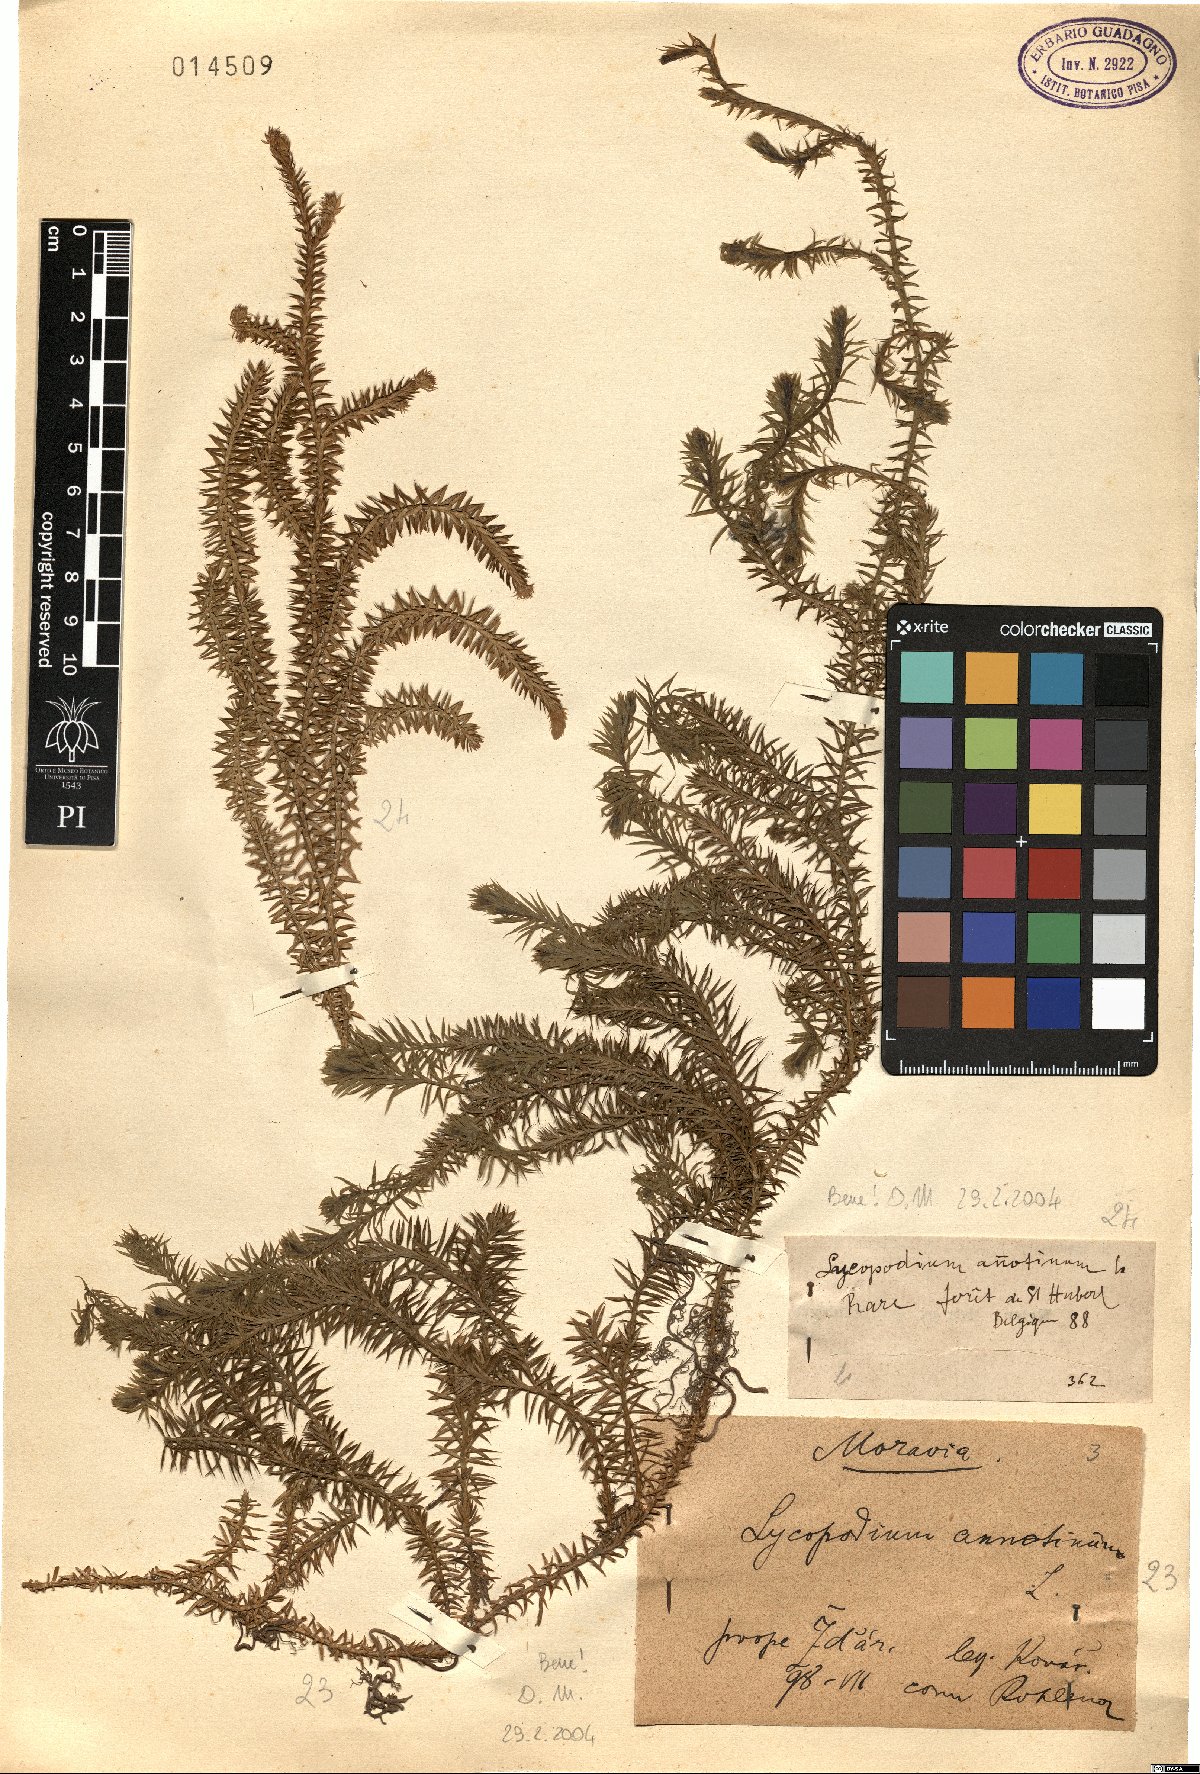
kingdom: Plantae
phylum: Tracheophyta
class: Lycopodiopsida
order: Lycopodiales
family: Lycopodiaceae
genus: Spinulum
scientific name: Spinulum annotinum
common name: Interrupted club-moss
